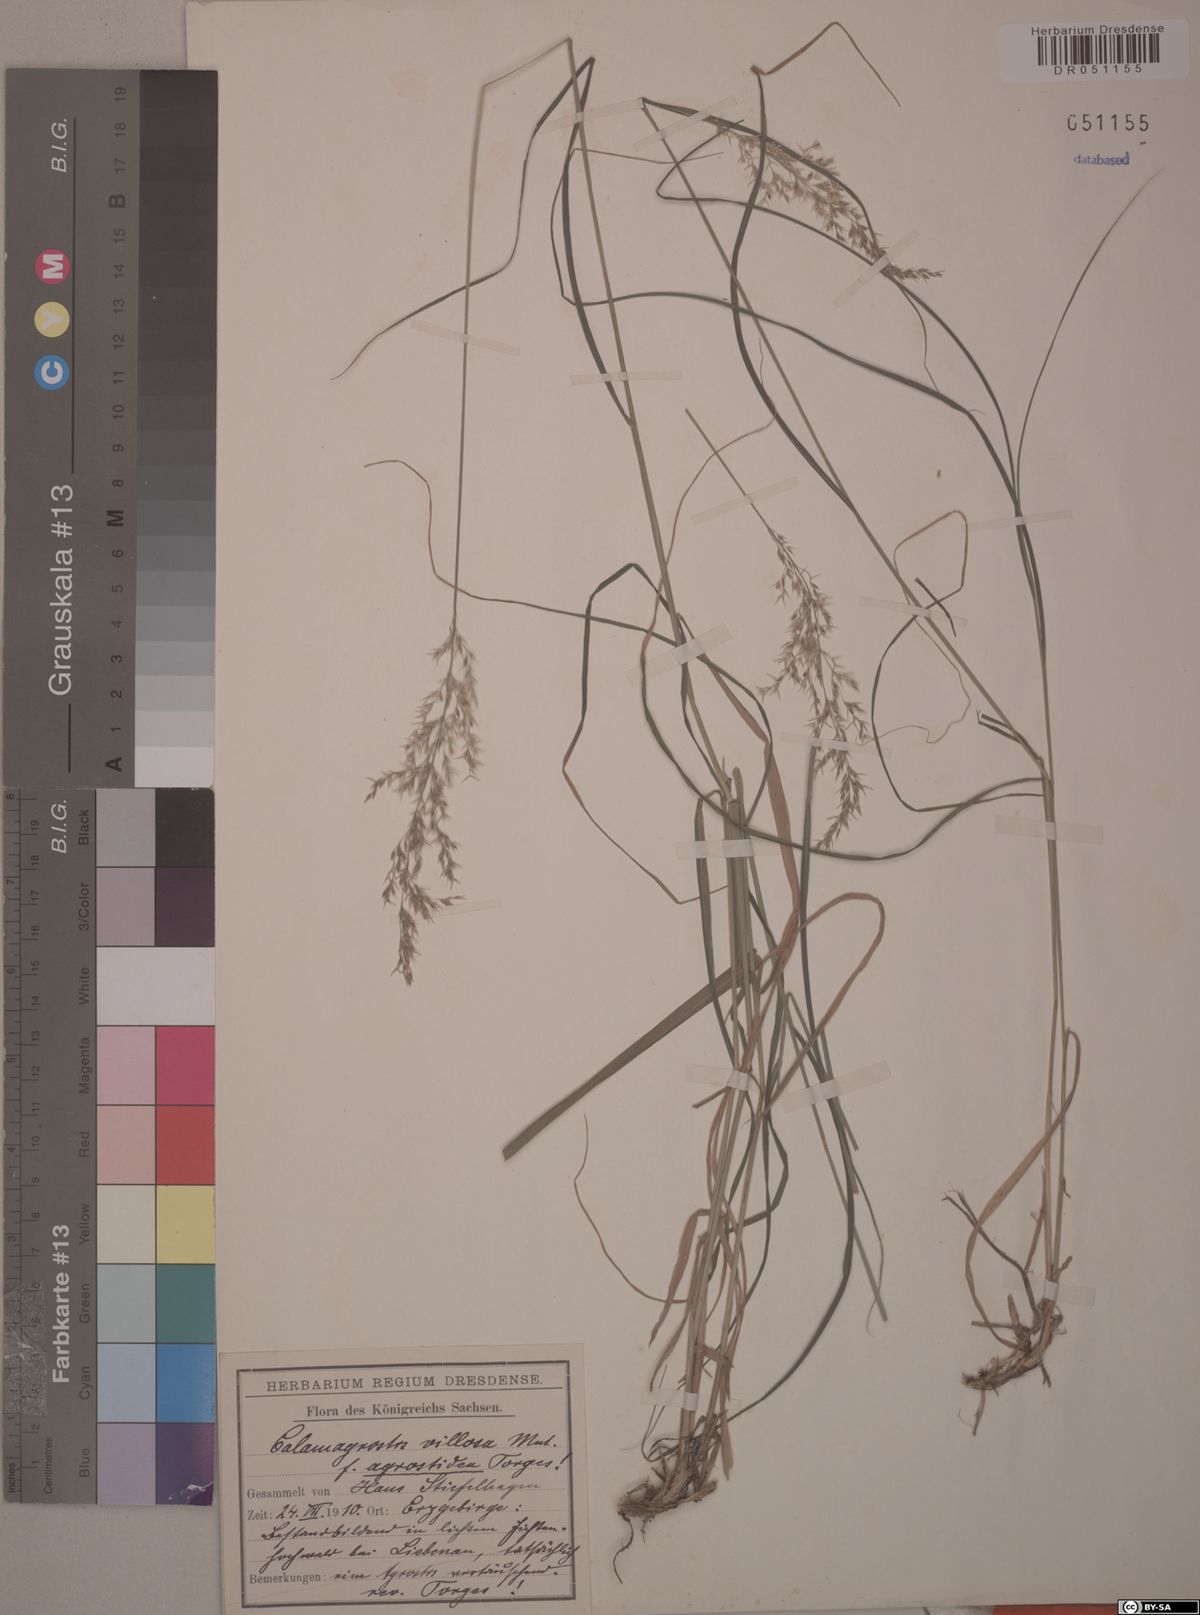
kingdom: Plantae
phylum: Tracheophyta
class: Liliopsida
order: Poales
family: Poaceae
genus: Calamagrostis
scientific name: Calamagrostis villosa
